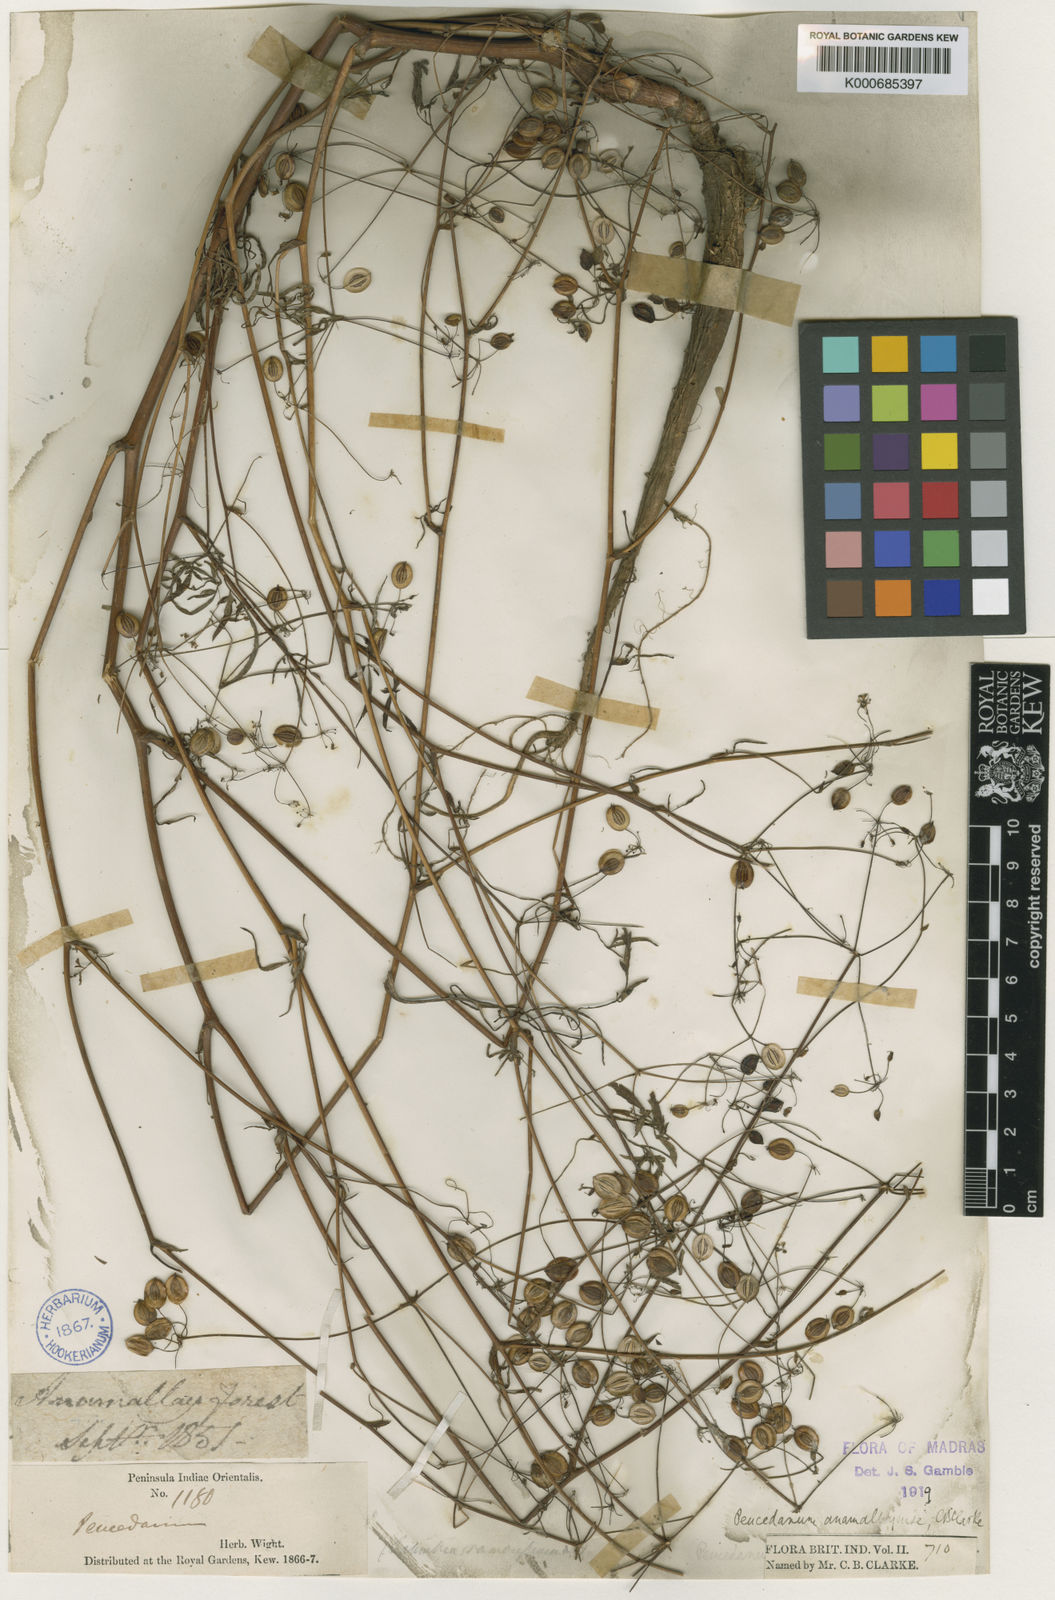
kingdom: Plantae
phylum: Tracheophyta
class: Magnoliopsida
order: Apiales
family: Apiaceae
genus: Peucedanum
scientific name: Peucedanum anamallayense
